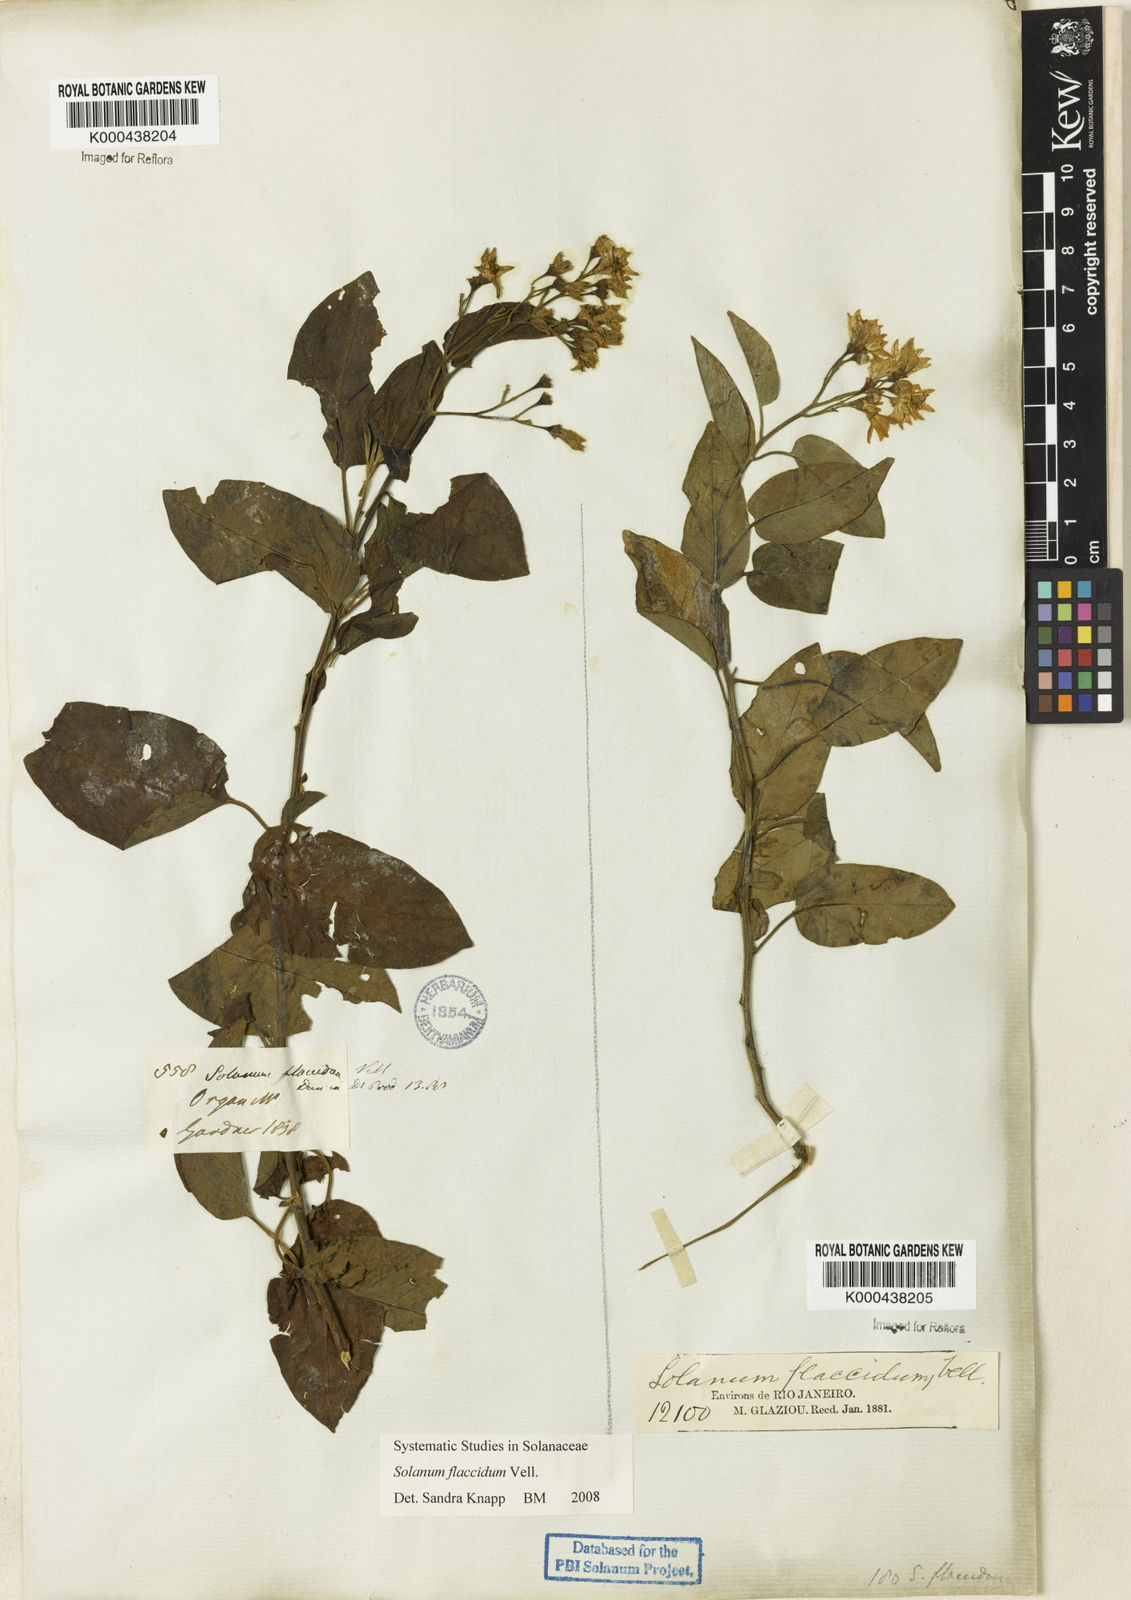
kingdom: Plantae
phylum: Tracheophyta
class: Magnoliopsida
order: Solanales
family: Solanaceae
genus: Solanum
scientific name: Solanum flaccidum
